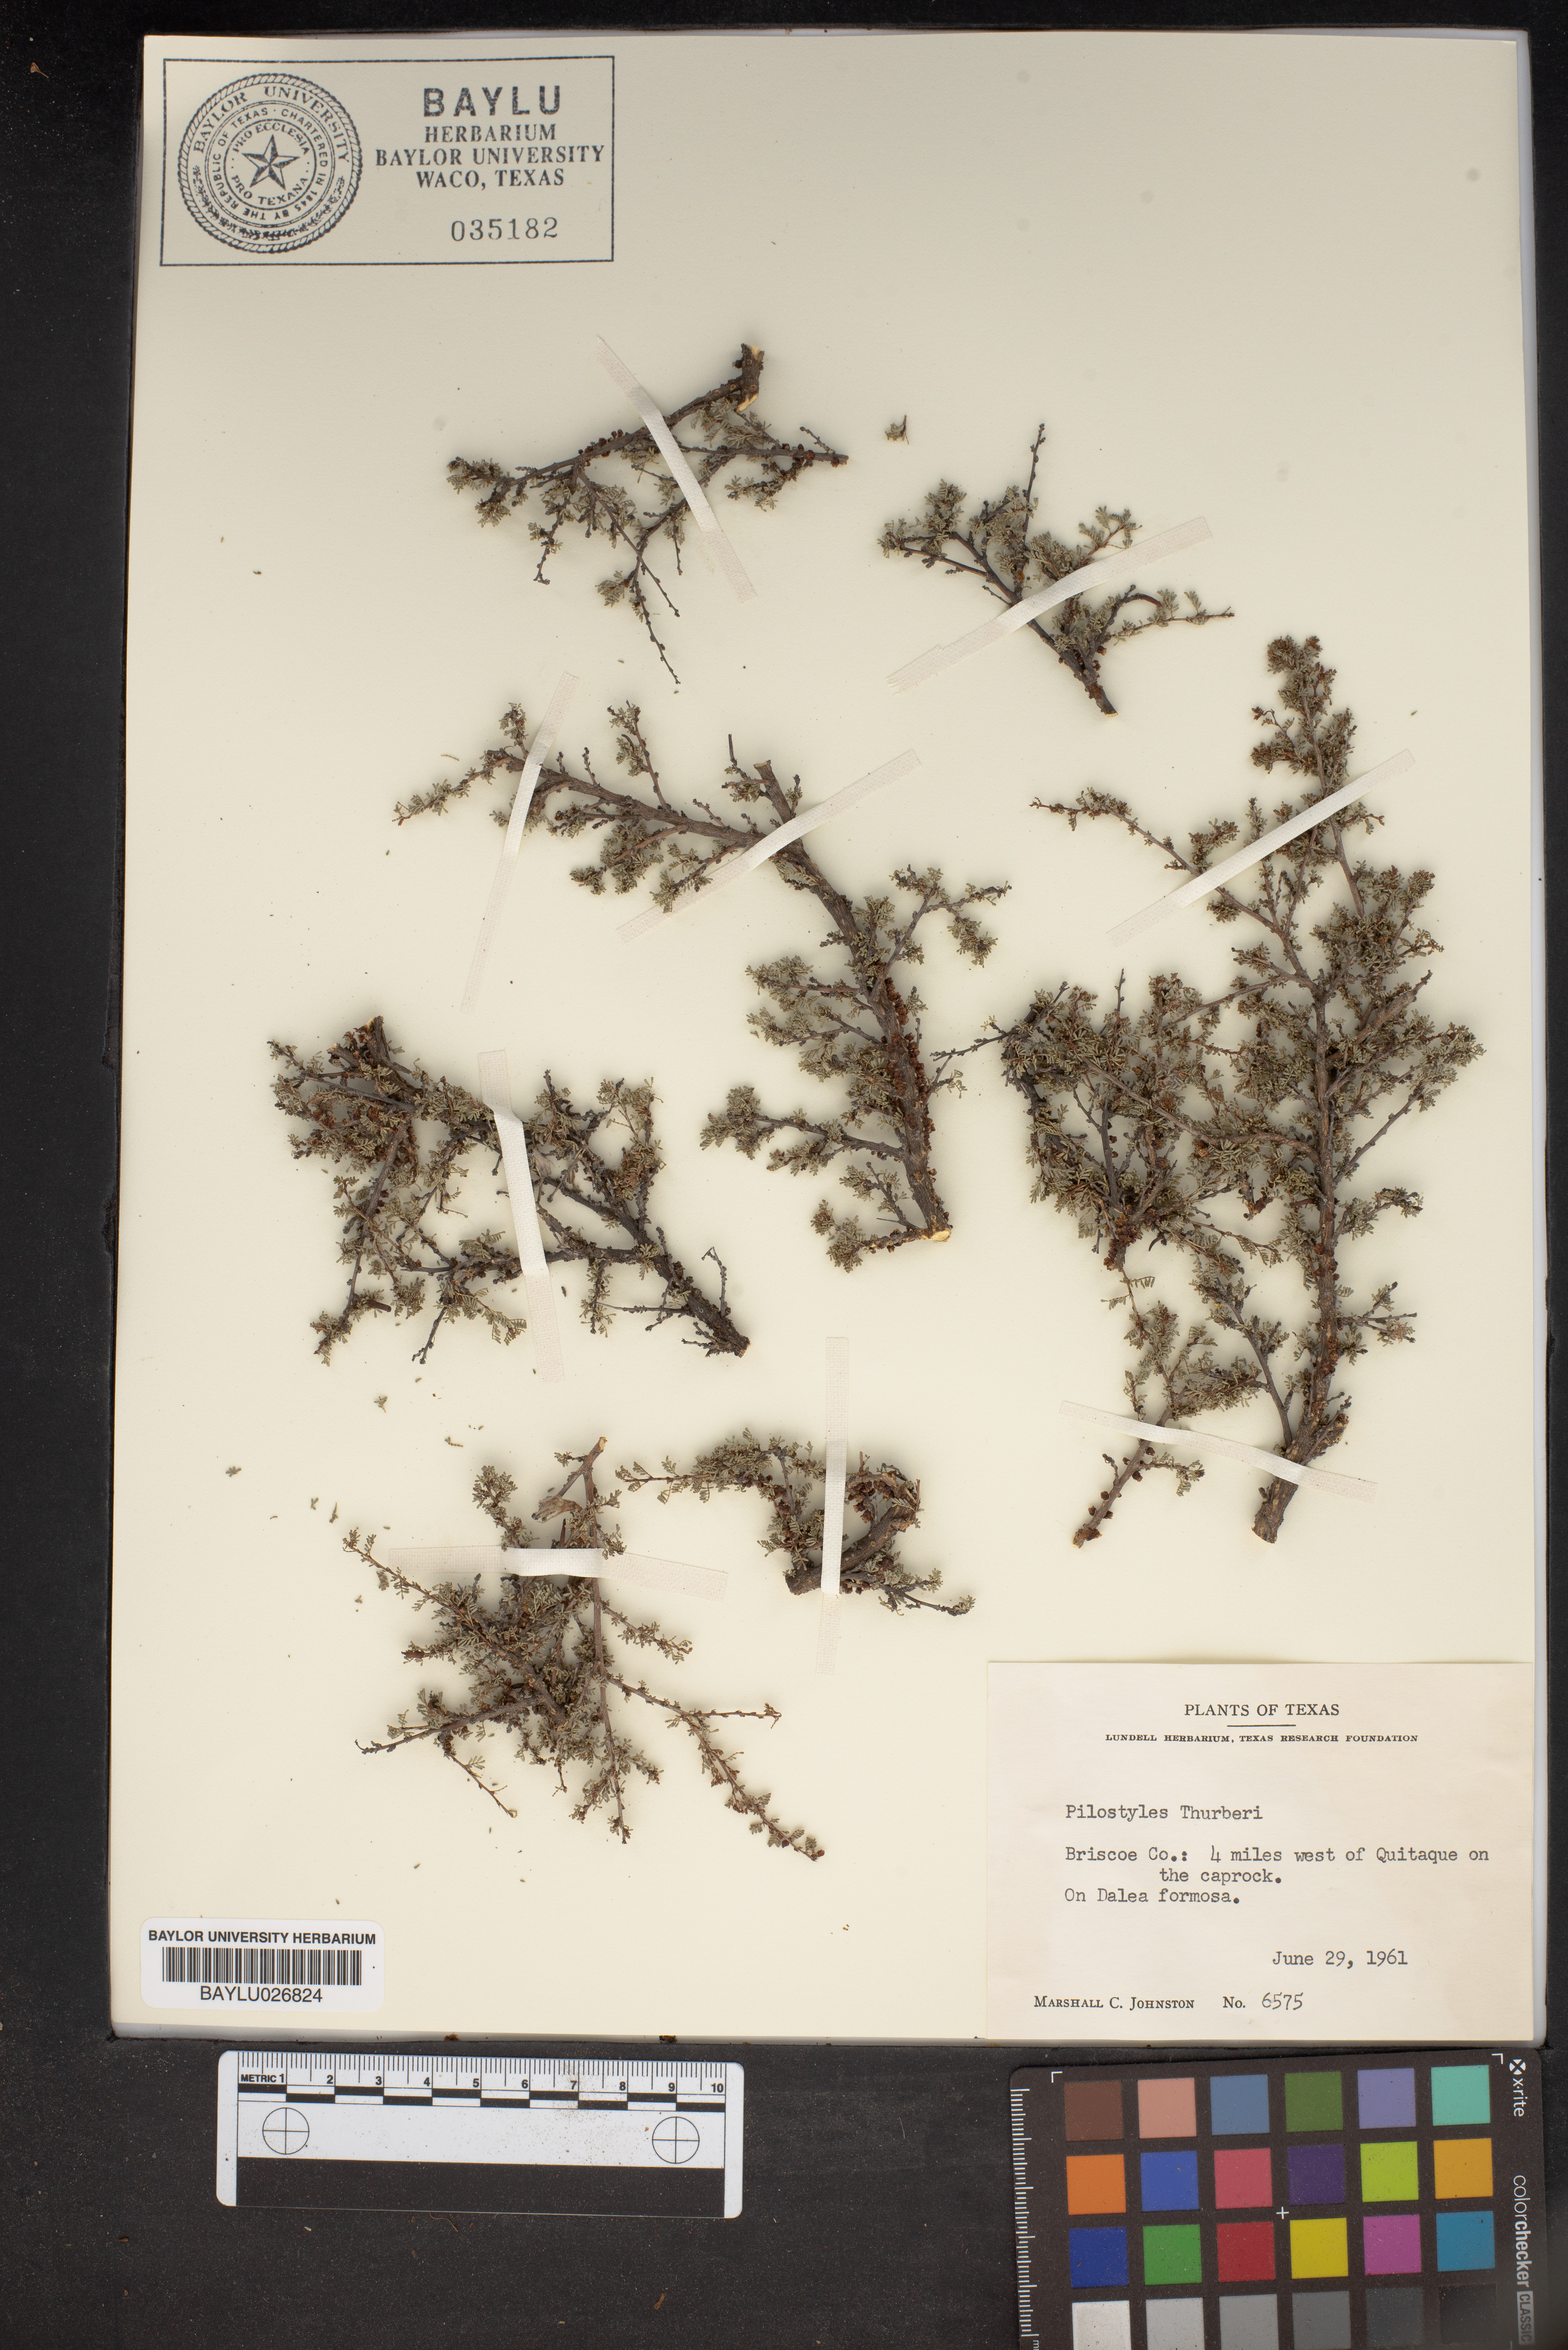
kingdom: Plantae
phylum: Tracheophyta
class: Magnoliopsida
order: Cucurbitales
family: Apodanthaceae
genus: Pilostyles
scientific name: Pilostyles thurberi
